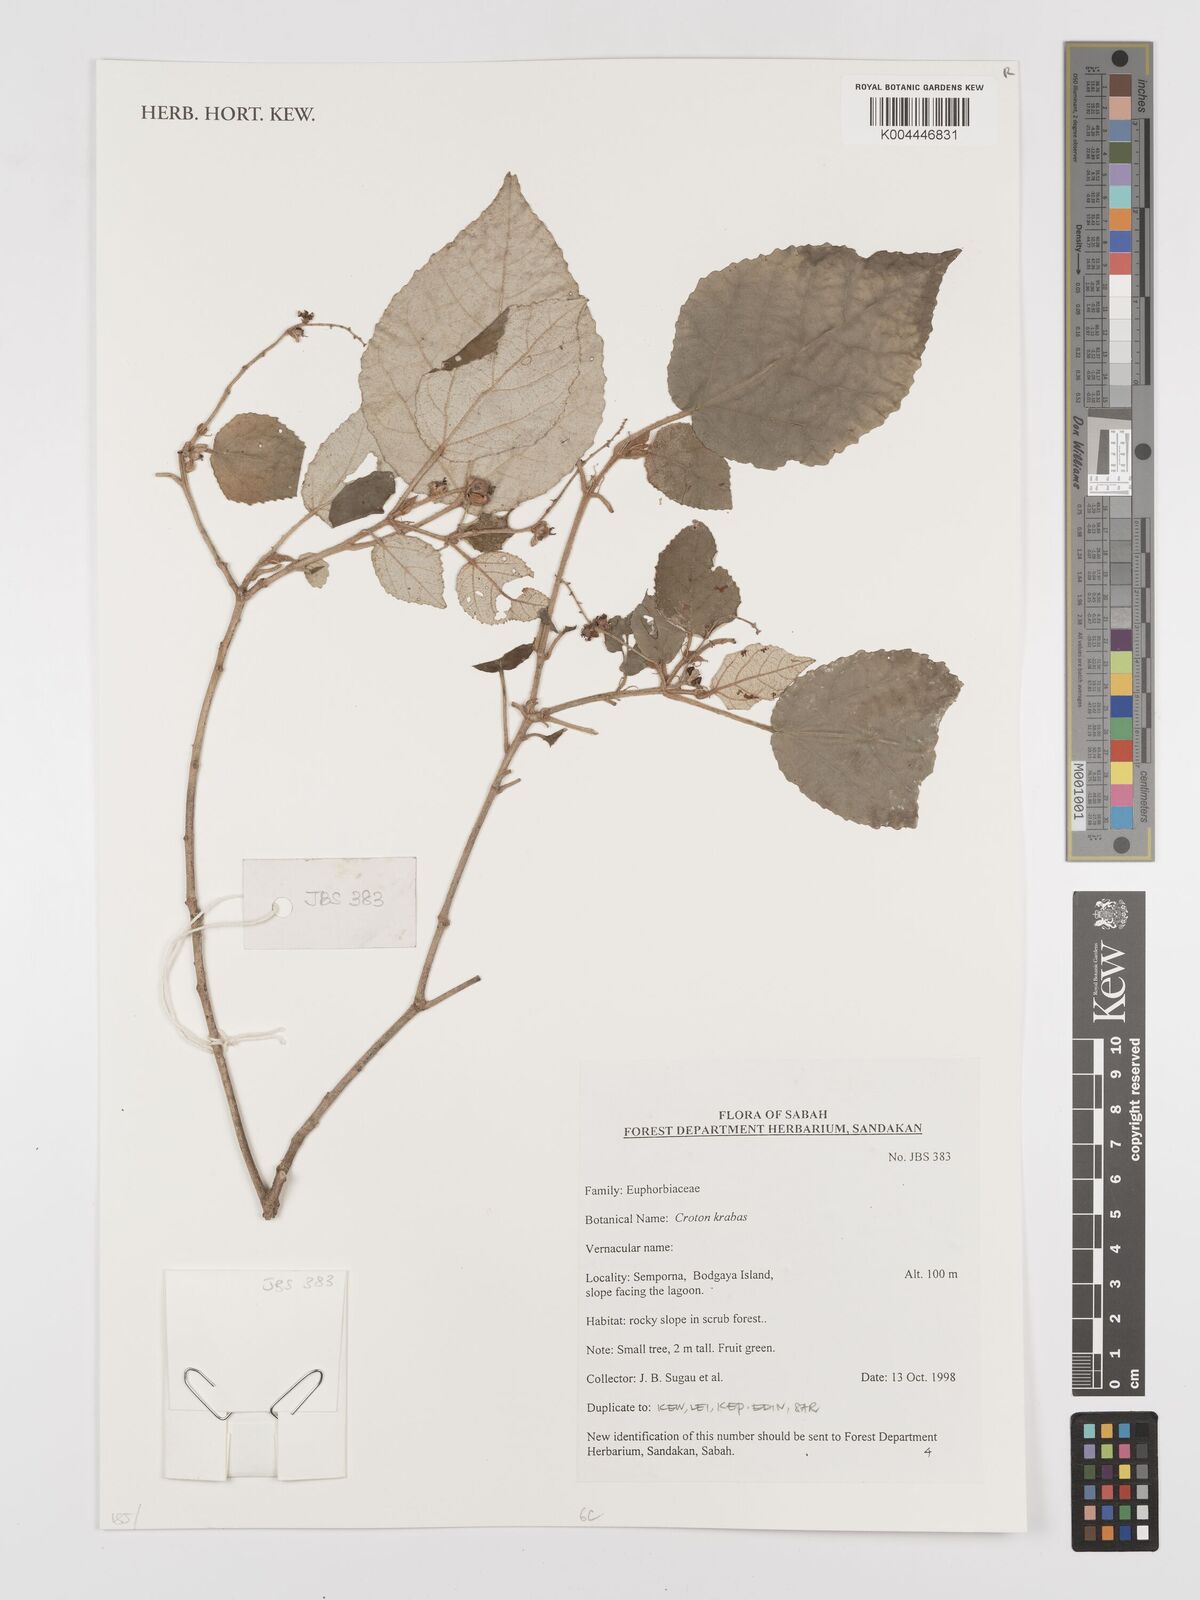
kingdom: Plantae
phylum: Tracheophyta
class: Magnoliopsida
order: Malpighiales
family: Euphorbiaceae
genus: Croton
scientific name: Croton krabas
